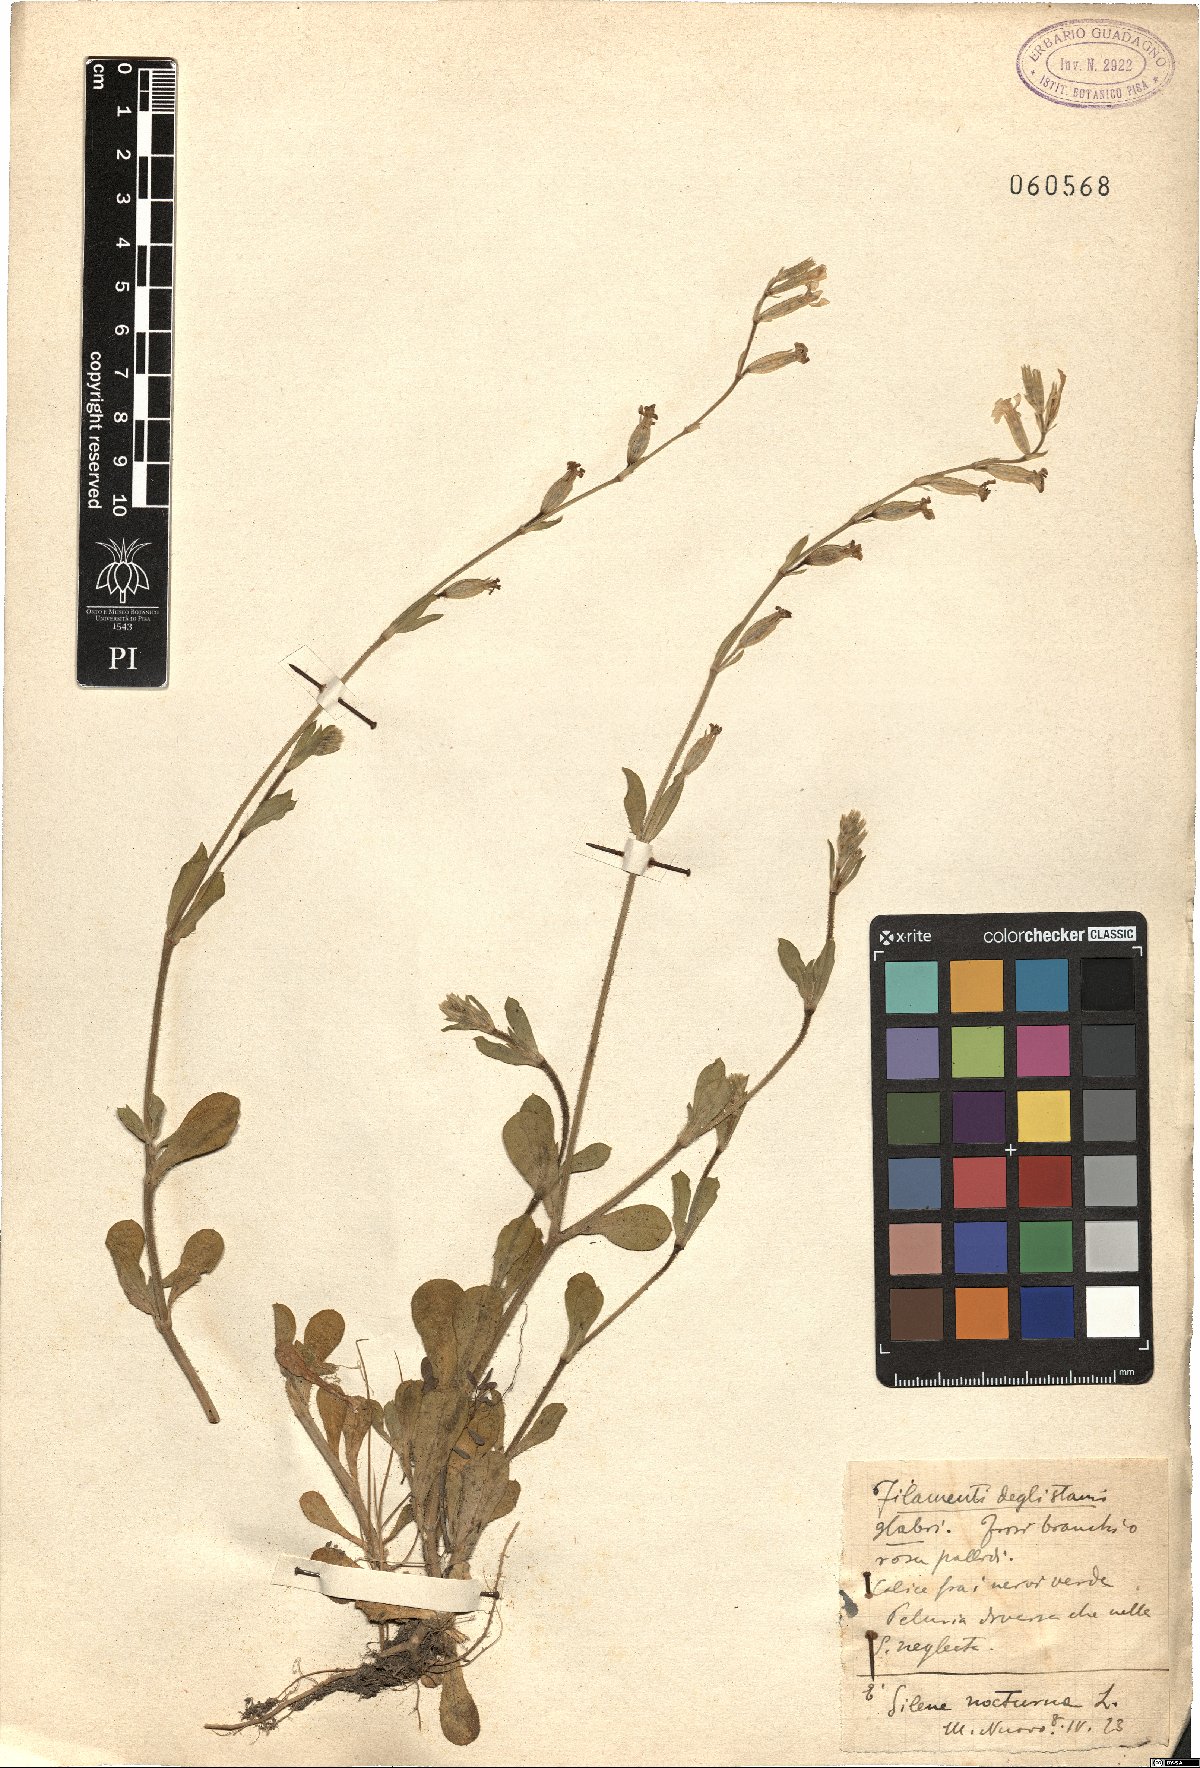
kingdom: Plantae
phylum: Tracheophyta
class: Magnoliopsida
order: Caryophyllales
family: Caryophyllaceae
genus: Silene
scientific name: Silene nocturna
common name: Mediterranean catchfly
